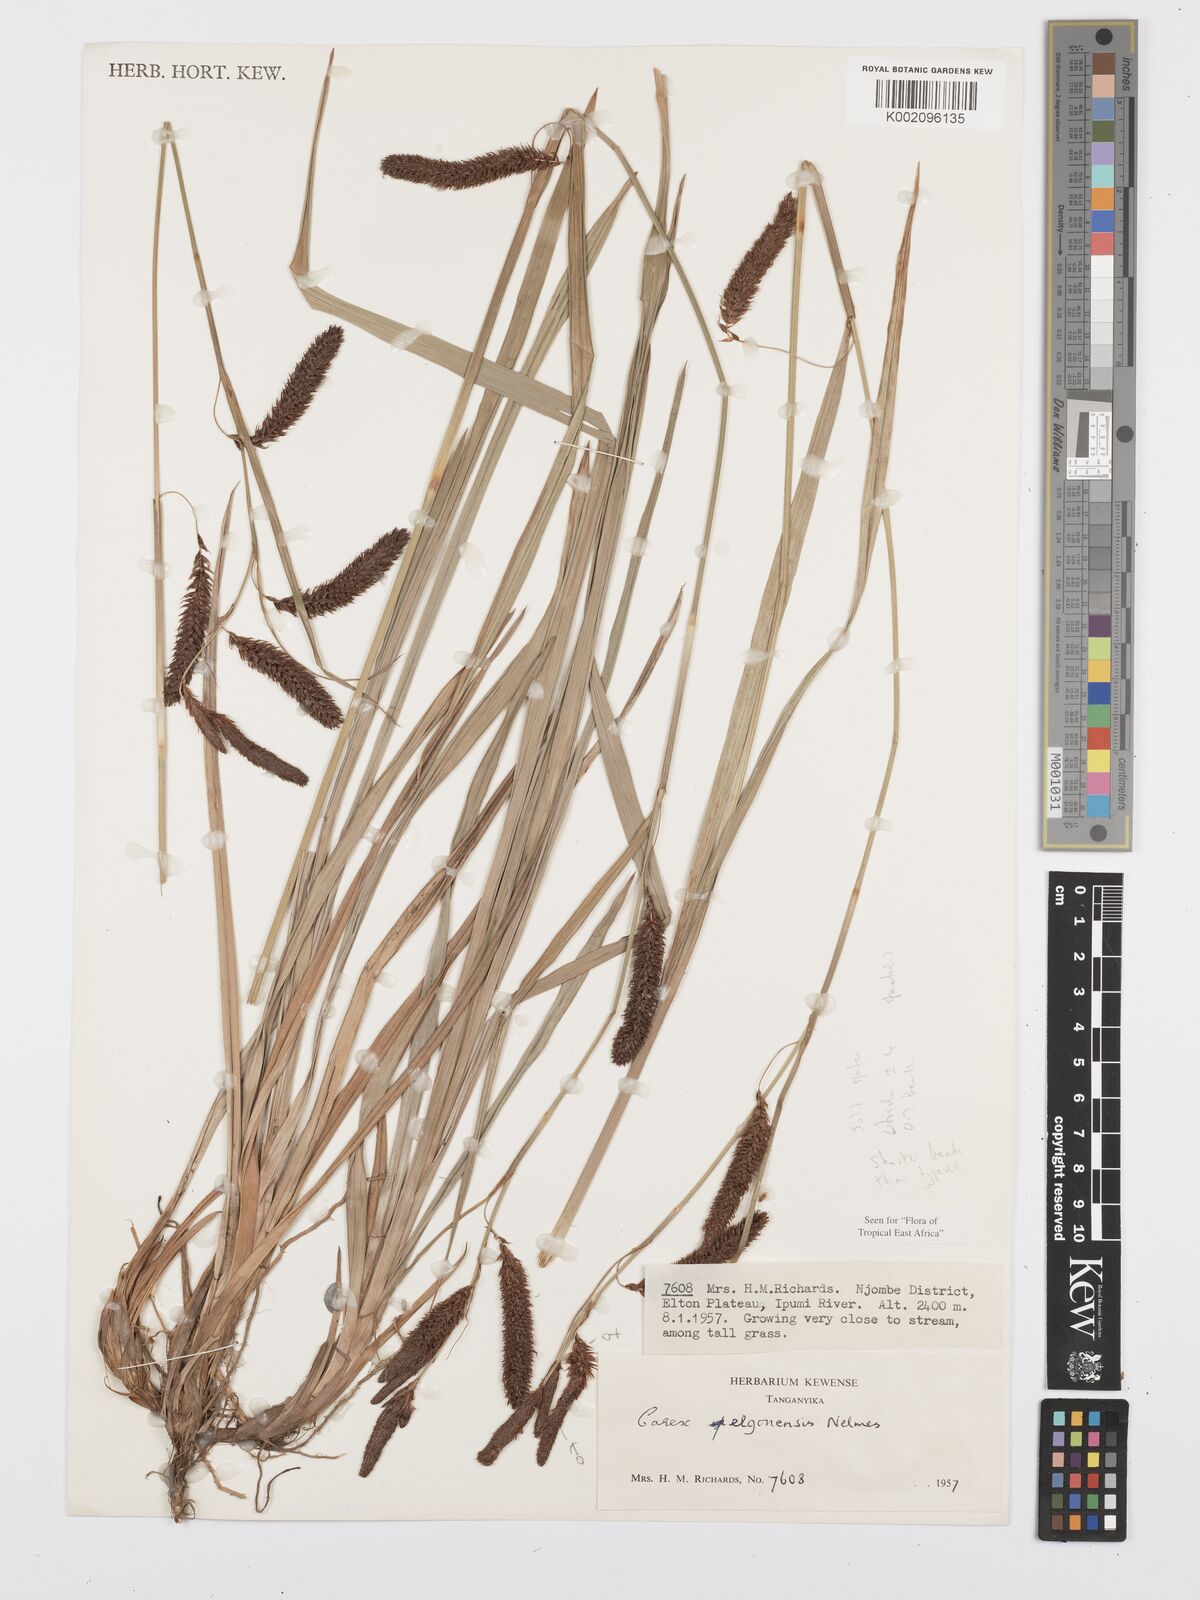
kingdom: Plantae
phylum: Tracheophyta
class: Liliopsida
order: Poales
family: Cyperaceae
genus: Carex
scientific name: Carex elgonensis
